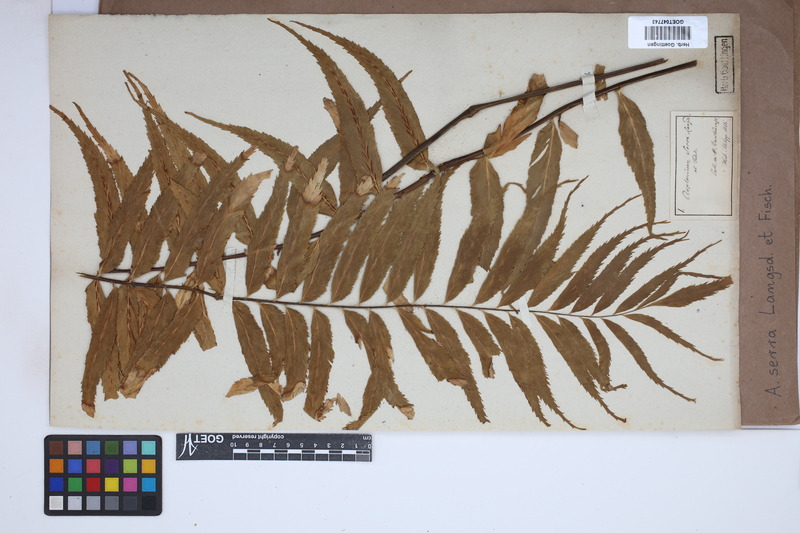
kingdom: Plantae
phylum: Tracheophyta
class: Polypodiopsida
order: Polypodiales
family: Aspleniaceae
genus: Asplenium
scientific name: Asplenium serra
